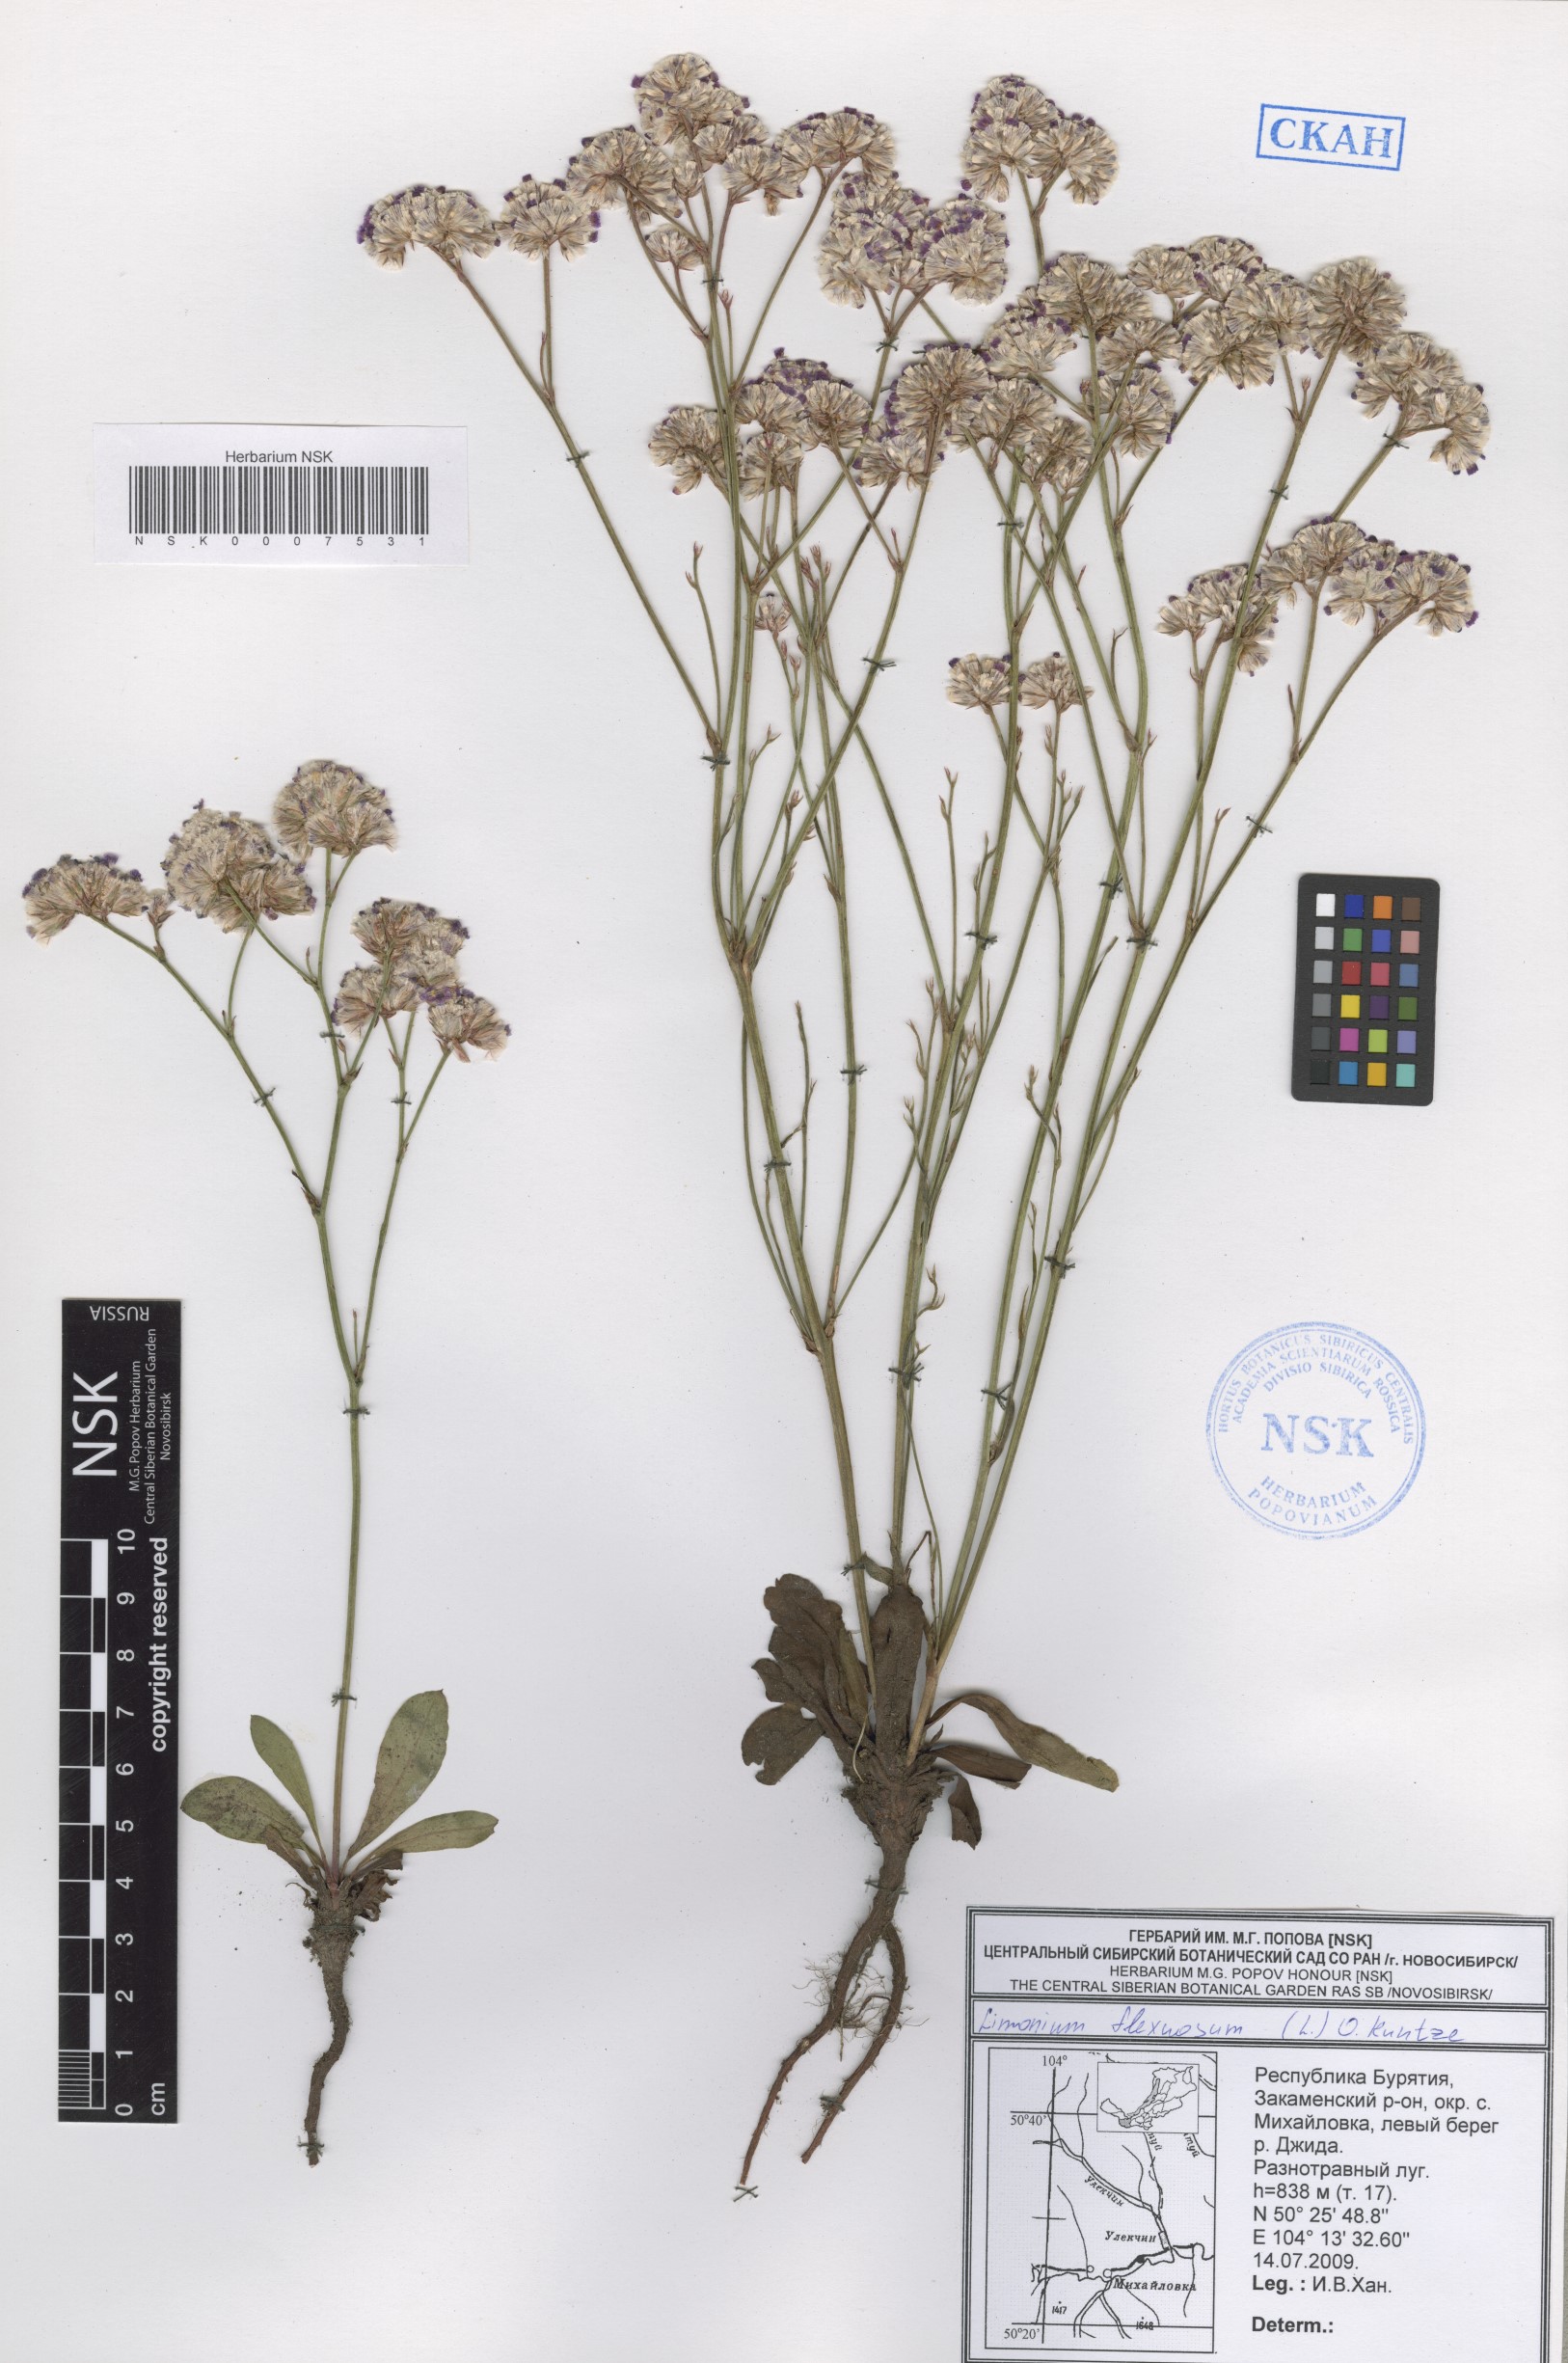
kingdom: Plantae
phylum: Tracheophyta
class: Magnoliopsida
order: Caryophyllales
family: Plumbaginaceae
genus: Limonium
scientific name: Limonium flexuosum
